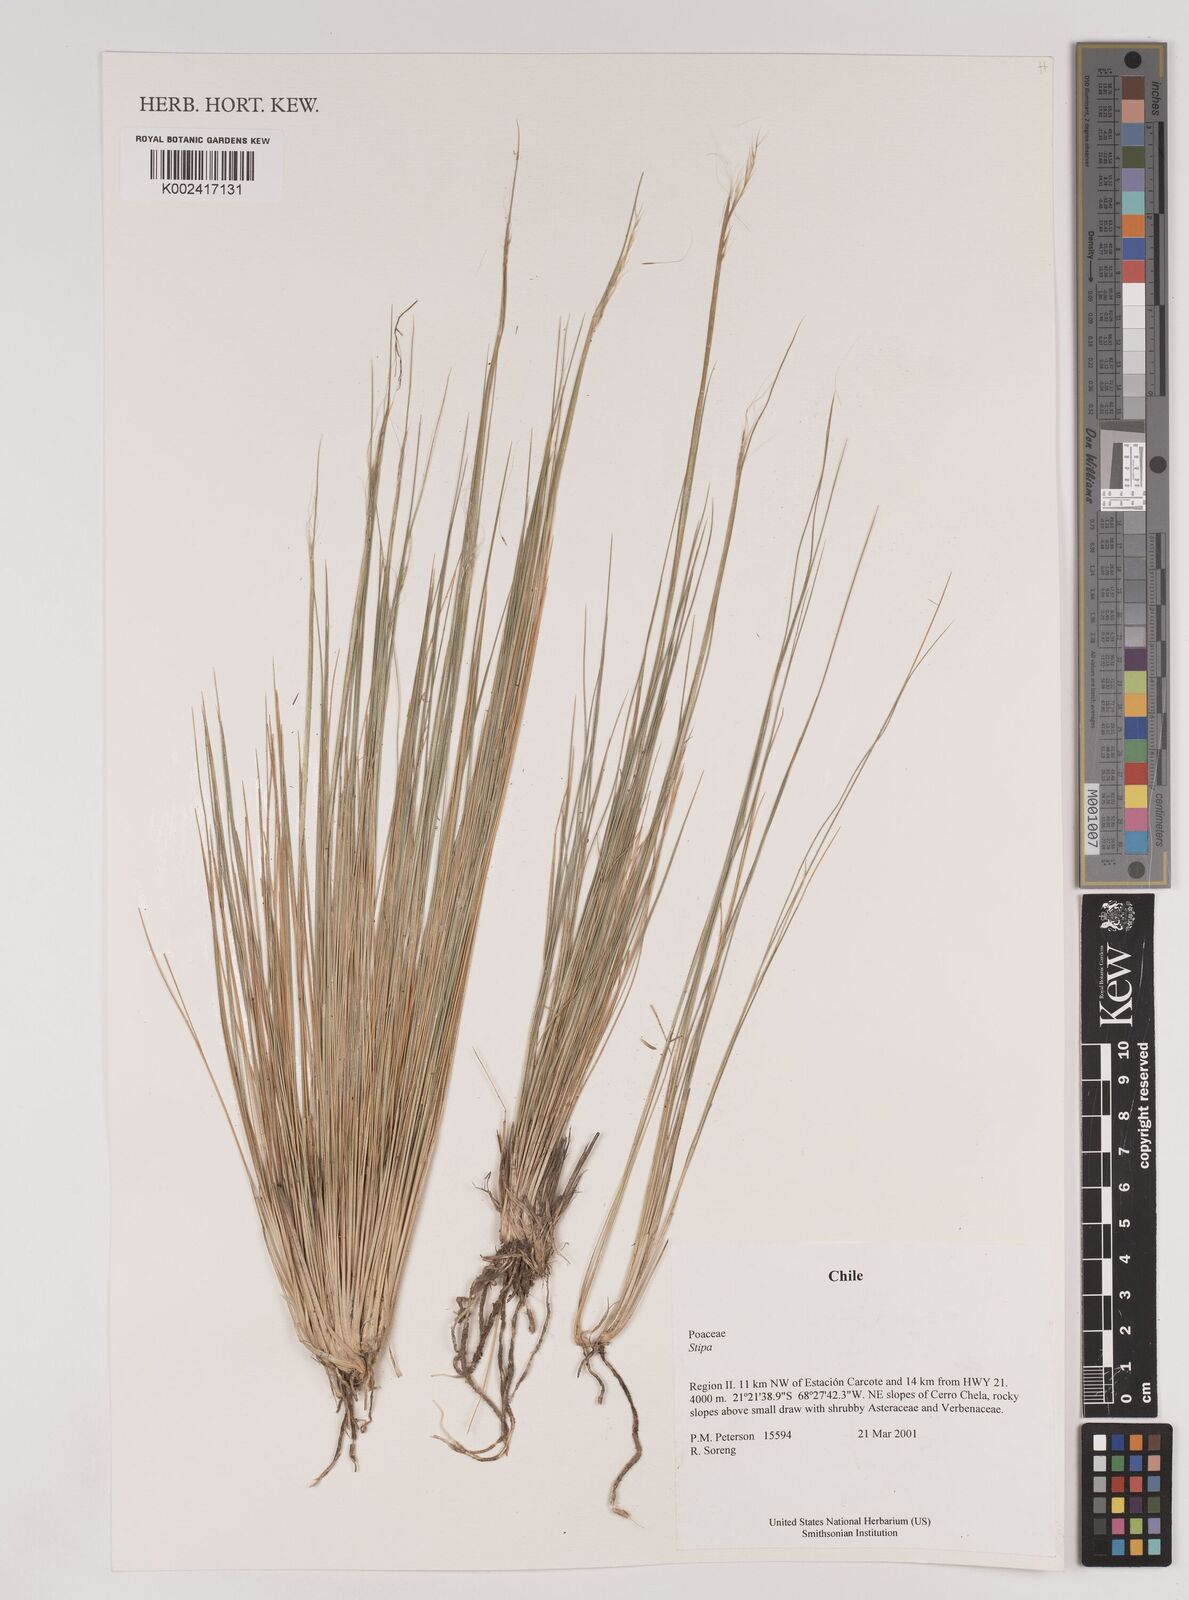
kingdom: Plantae
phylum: Tracheophyta
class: Liliopsida
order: Poales
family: Poaceae
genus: Stipa
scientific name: Stipa
